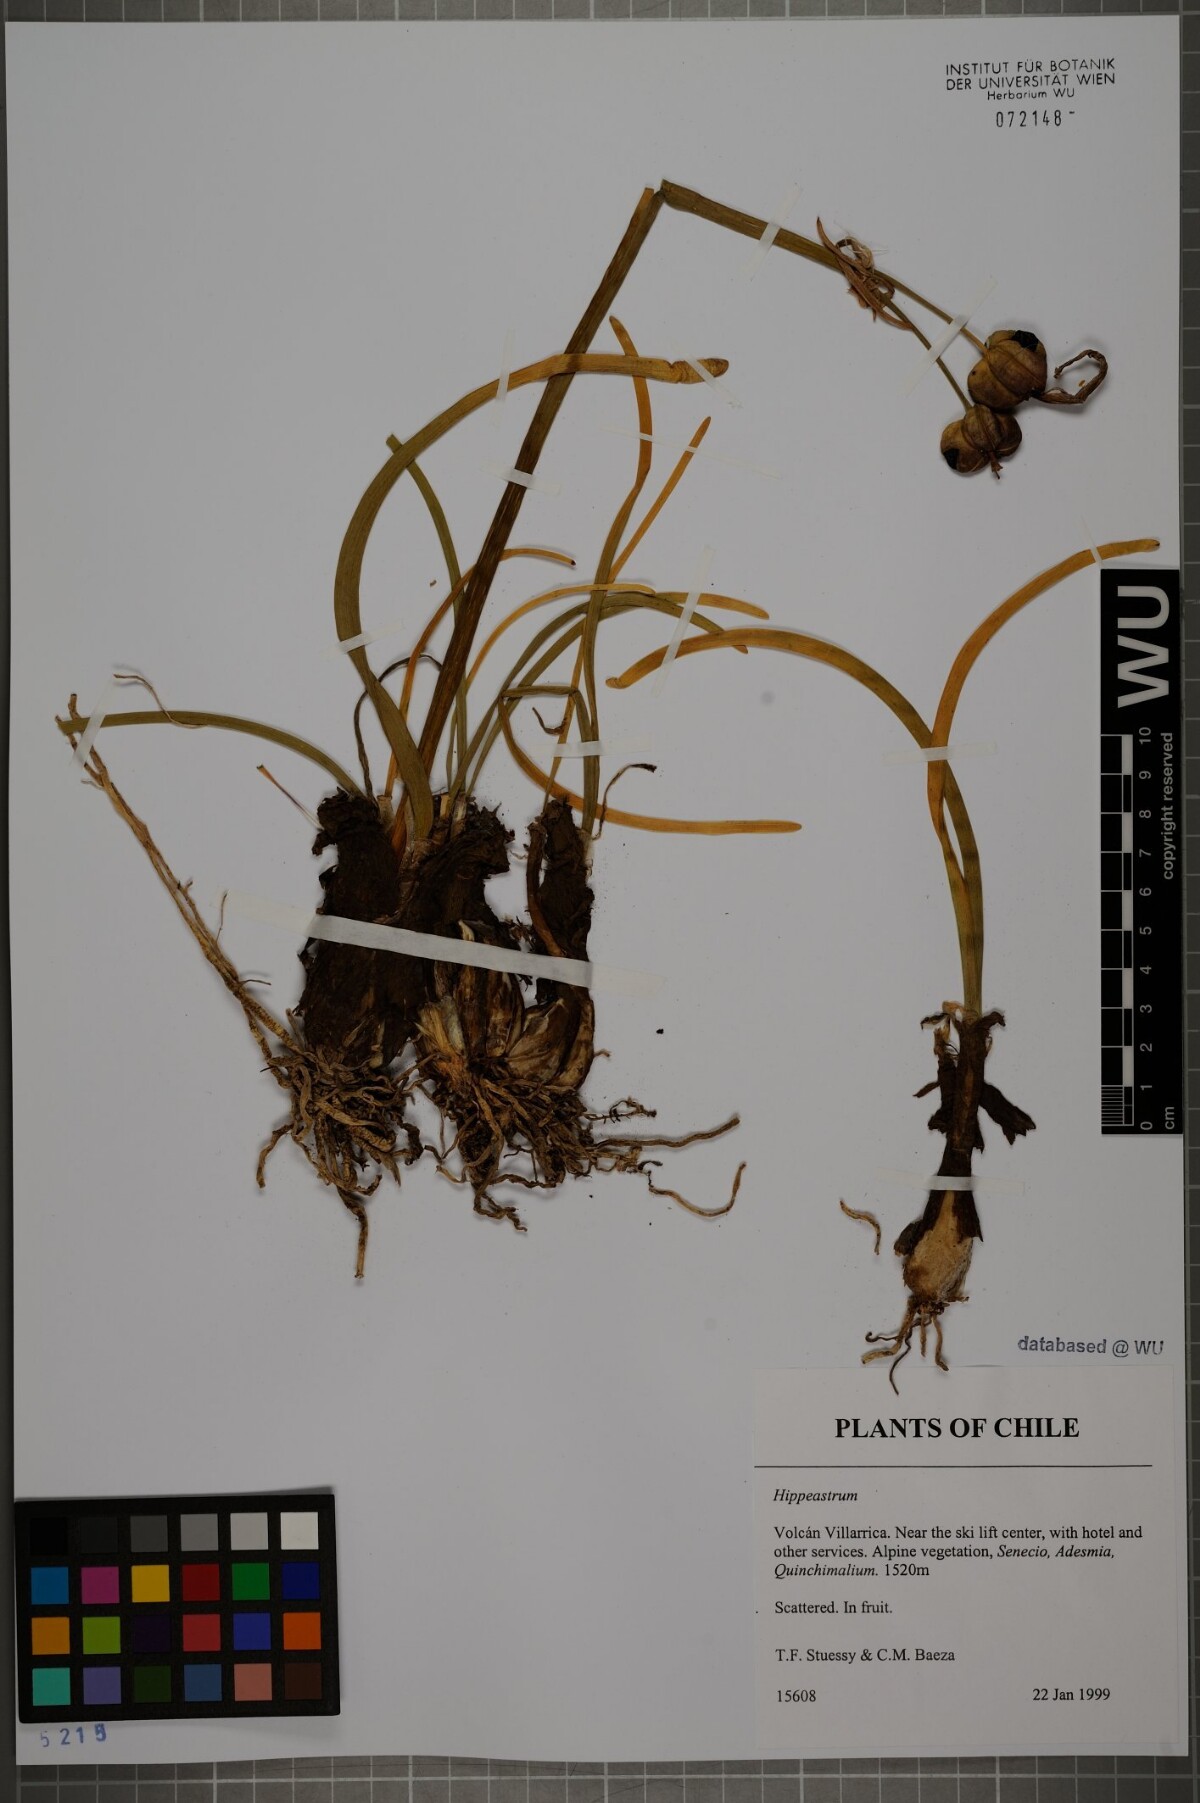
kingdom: Plantae
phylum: Tracheophyta
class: Liliopsida
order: Asparagales
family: Amaryllidaceae
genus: Hippeastrum
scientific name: Hippeastrum
